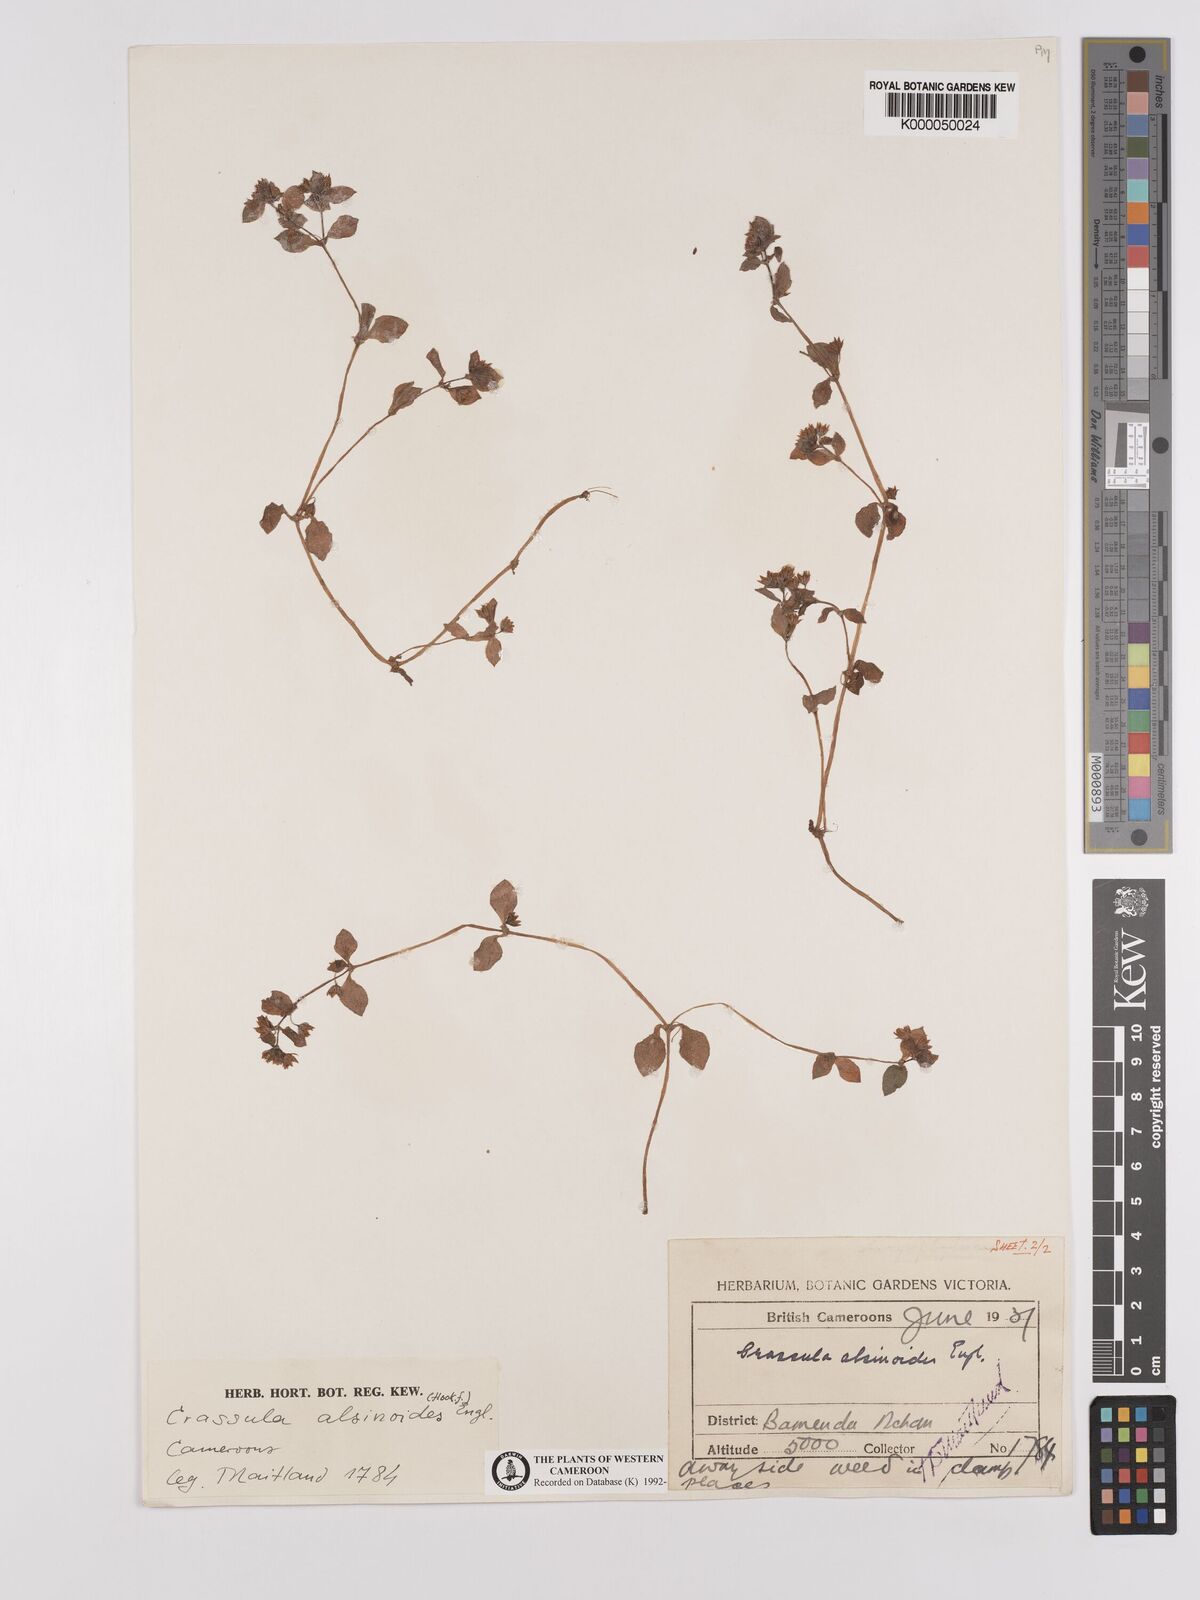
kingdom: Plantae
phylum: Tracheophyta
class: Magnoliopsida
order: Saxifragales
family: Crassulaceae
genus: Crassula
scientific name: Crassula alsinoides
